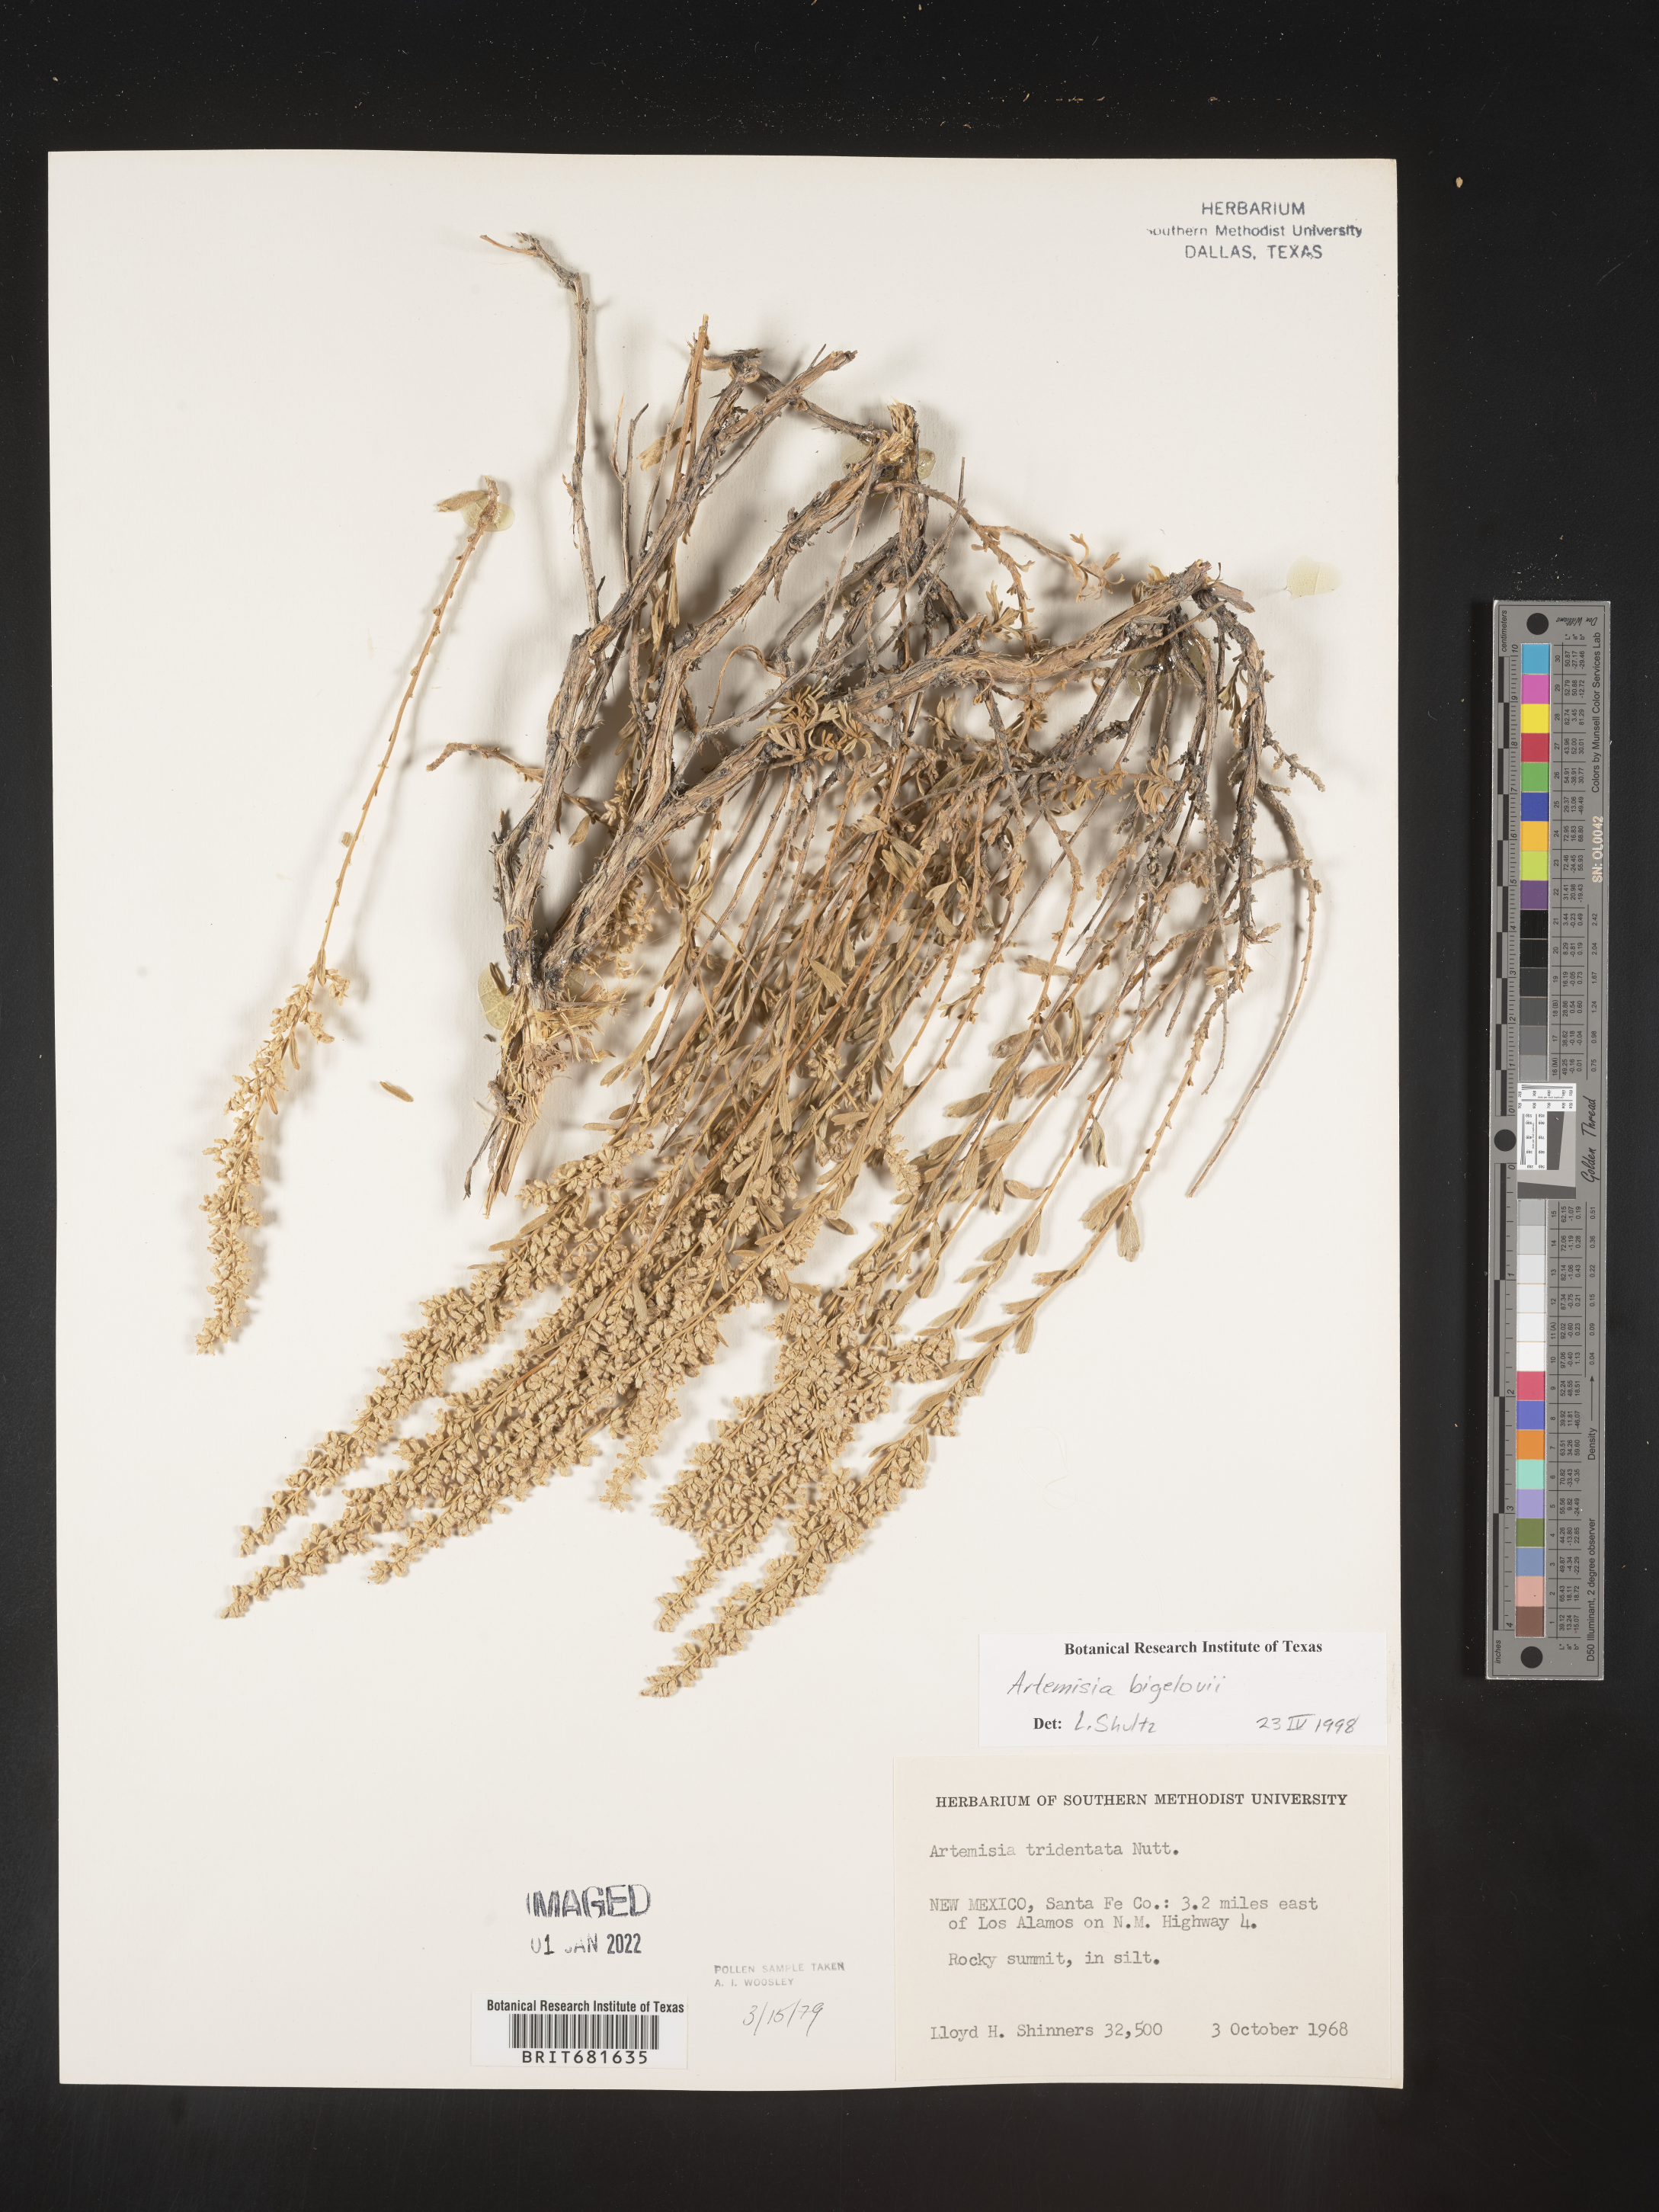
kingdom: Plantae
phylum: Tracheophyta
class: Magnoliopsida
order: Asterales
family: Asteraceae
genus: Artemisia
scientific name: Artemisia bigelovii
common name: Bigelow sagebrush
